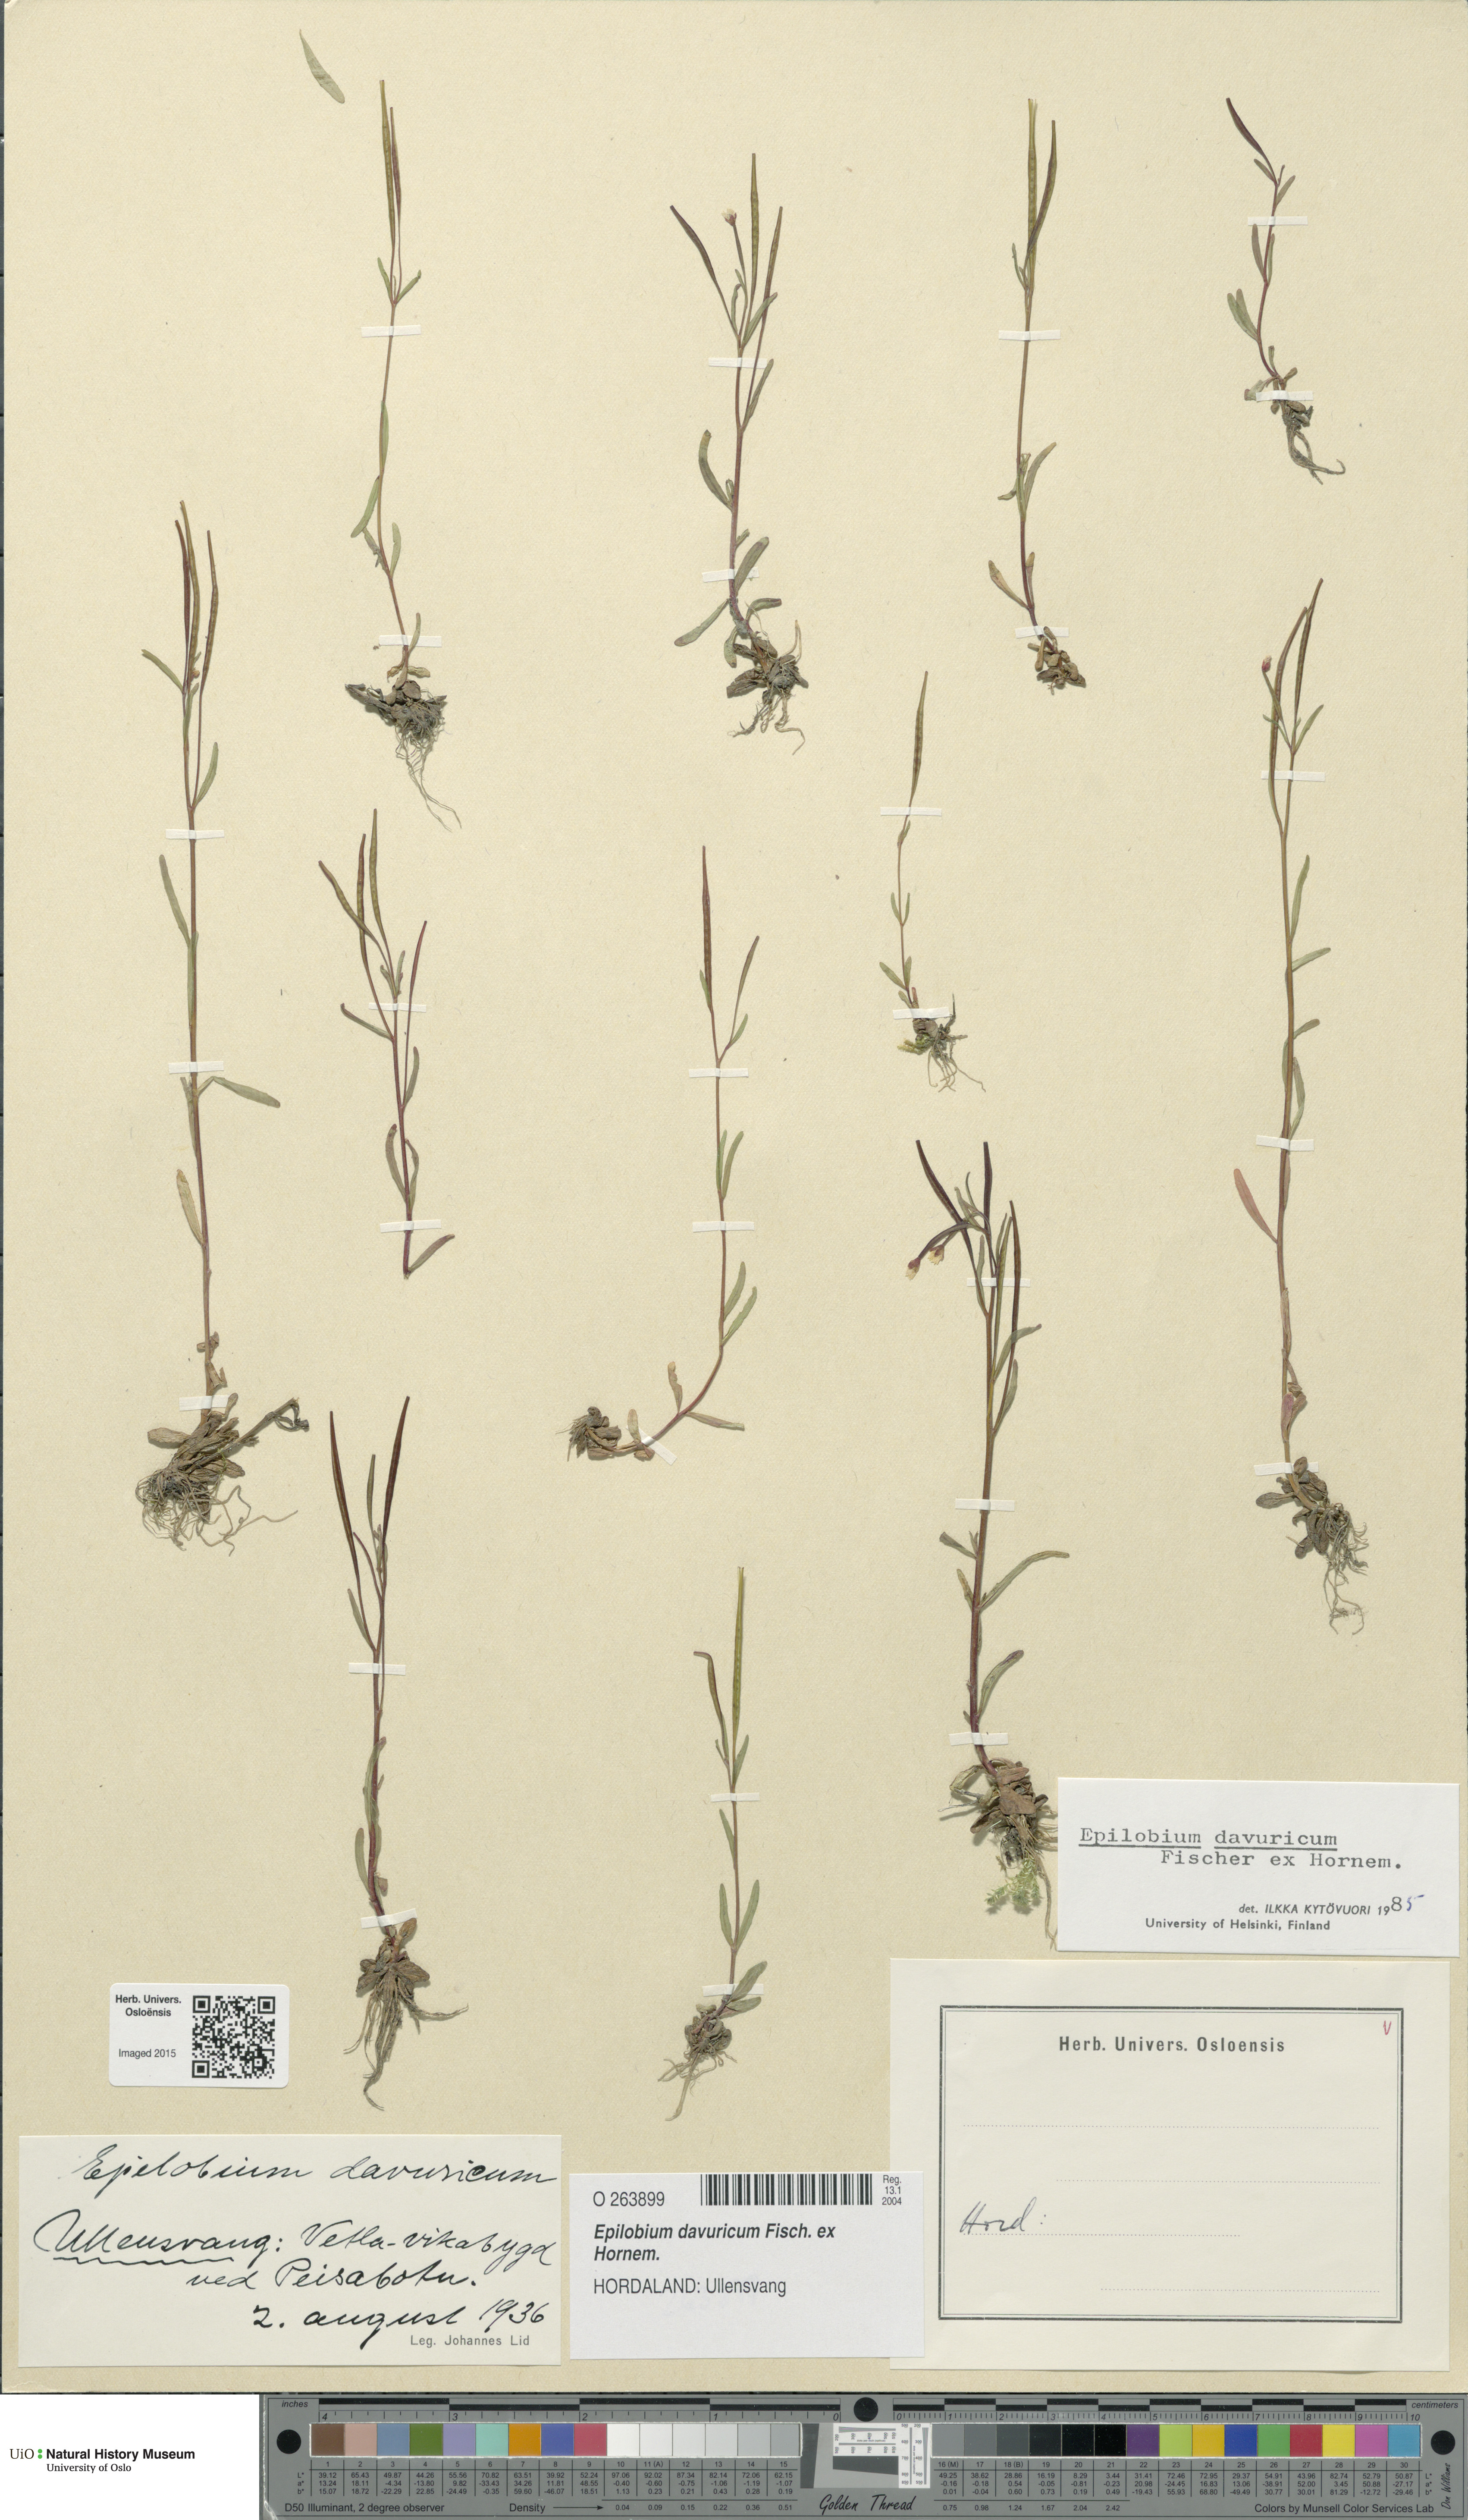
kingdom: Plantae
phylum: Tracheophyta
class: Magnoliopsida
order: Myrtales
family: Onagraceae
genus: Epilobium
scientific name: Epilobium davuricum
